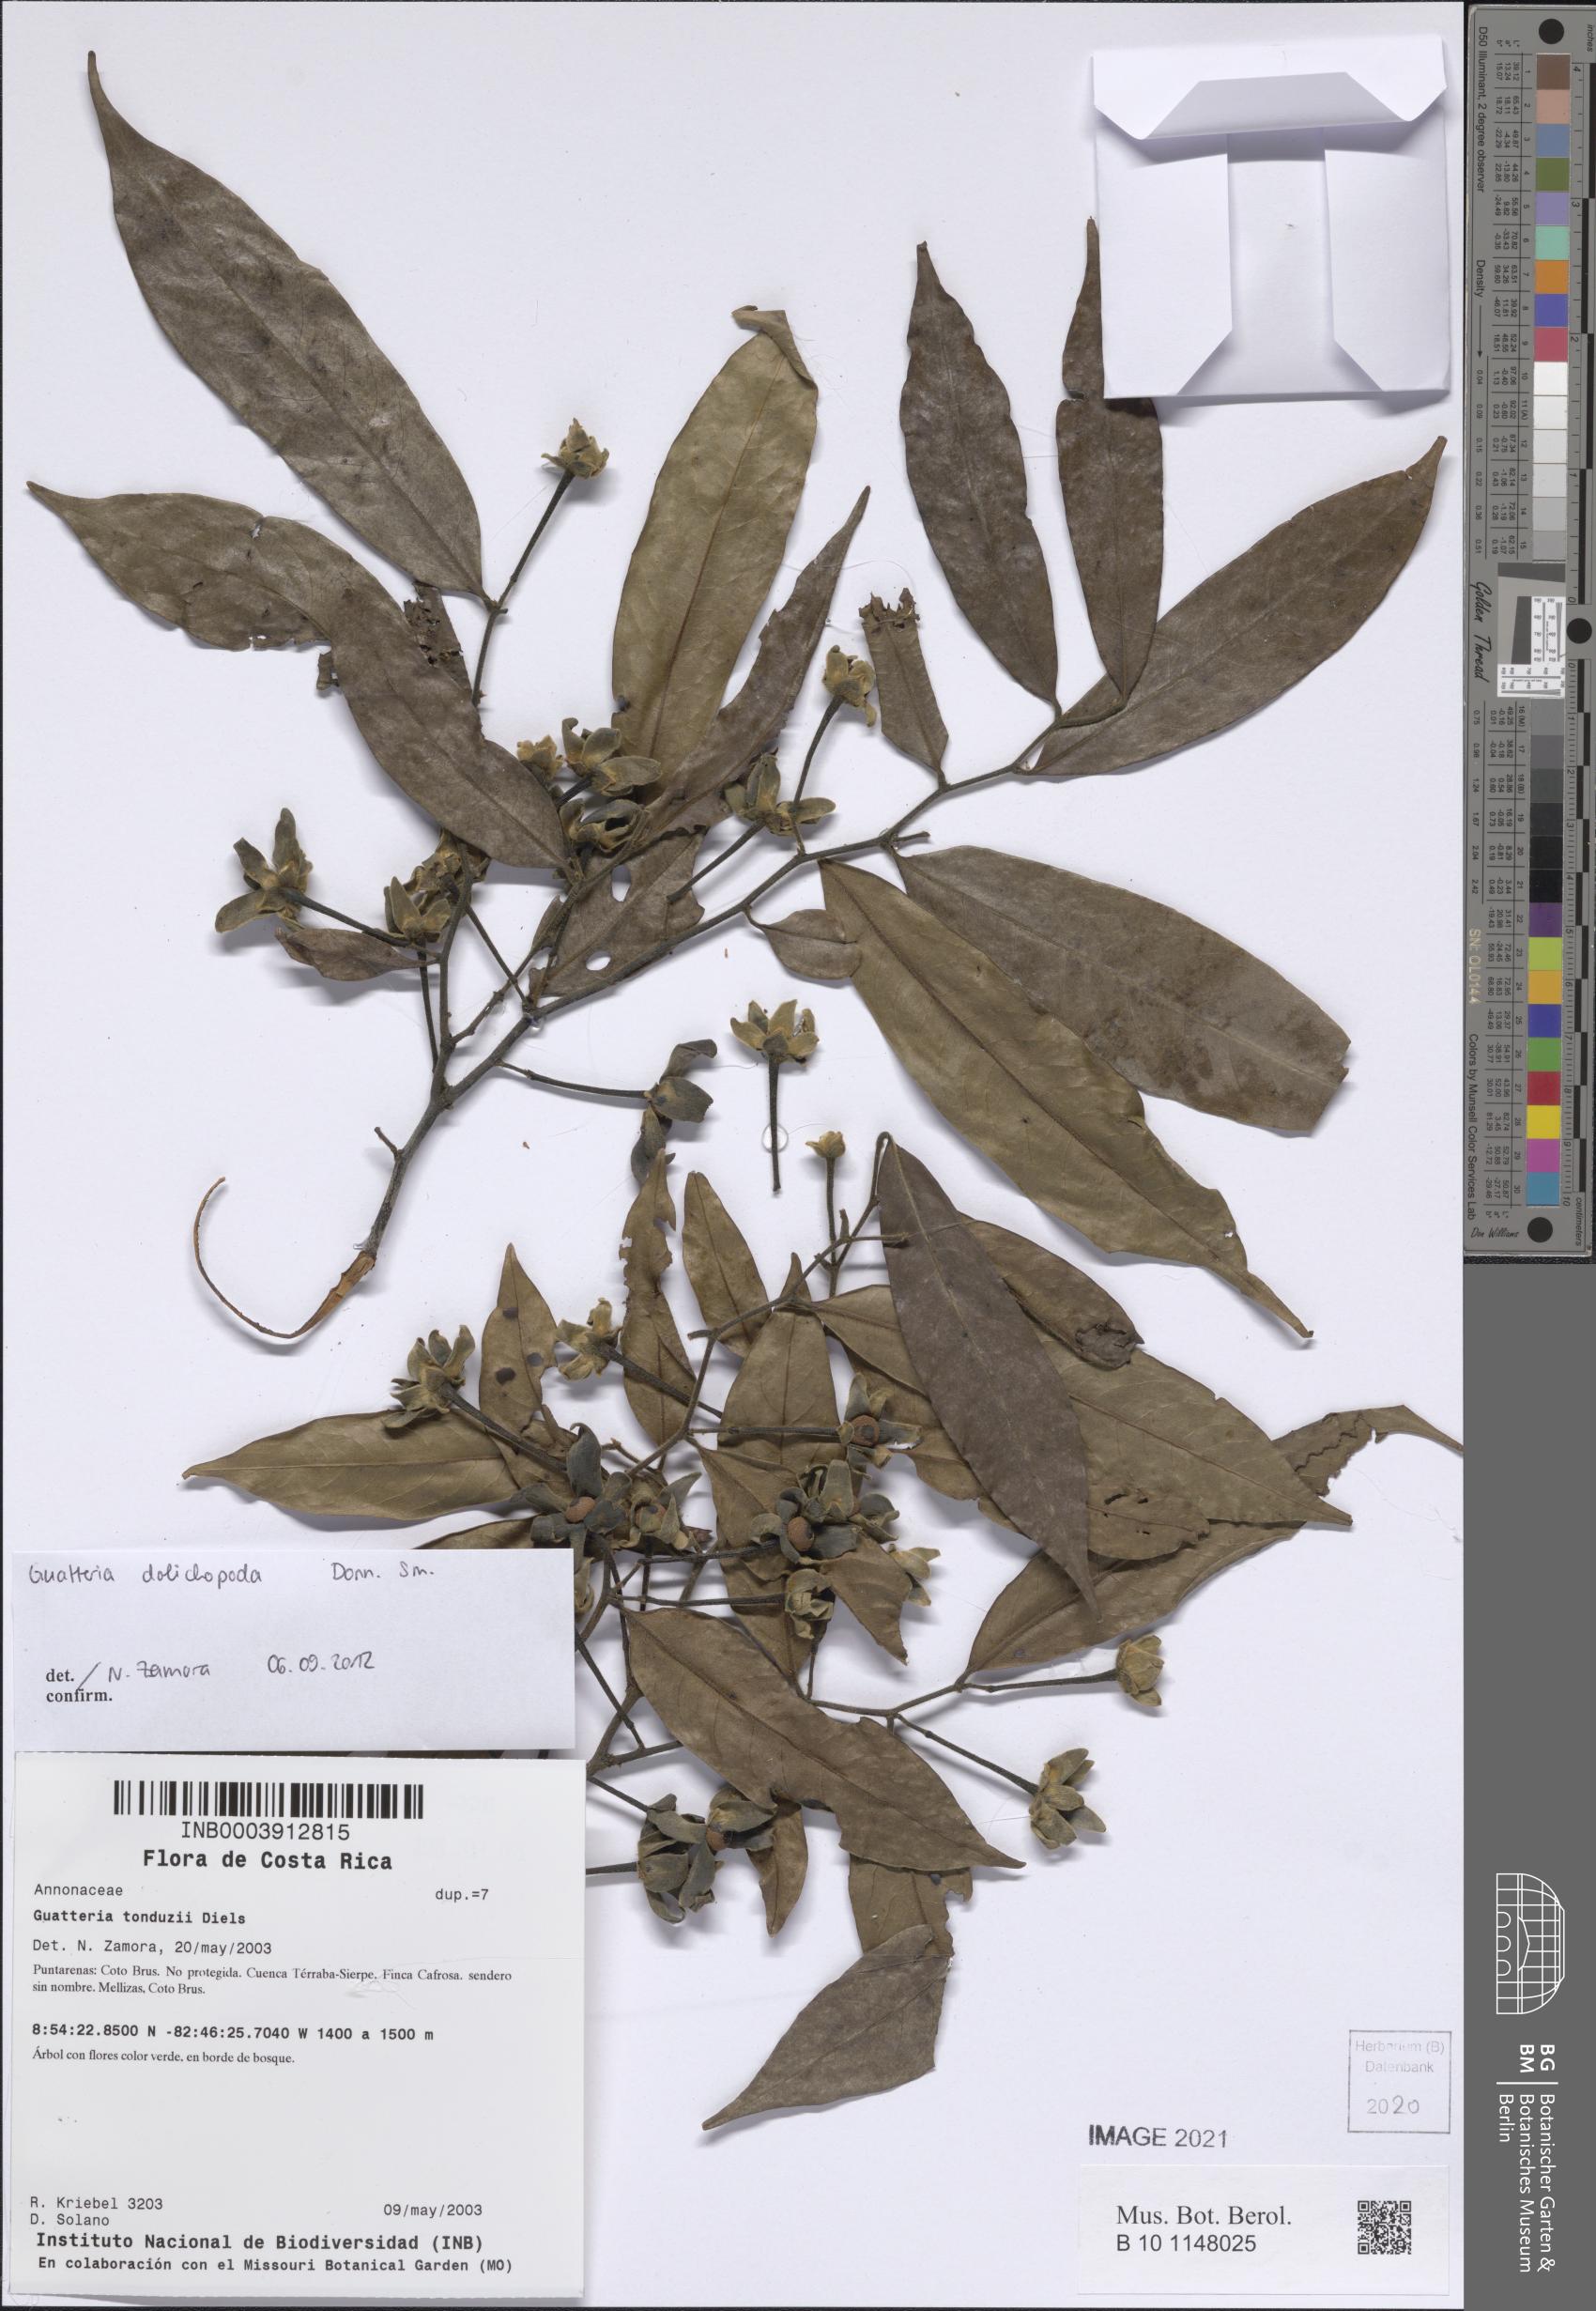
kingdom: Plantae
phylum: Tracheophyta
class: Magnoliopsida
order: Magnoliales
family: Annonaceae
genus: Guatteria
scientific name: Guatteria dolichopoda
